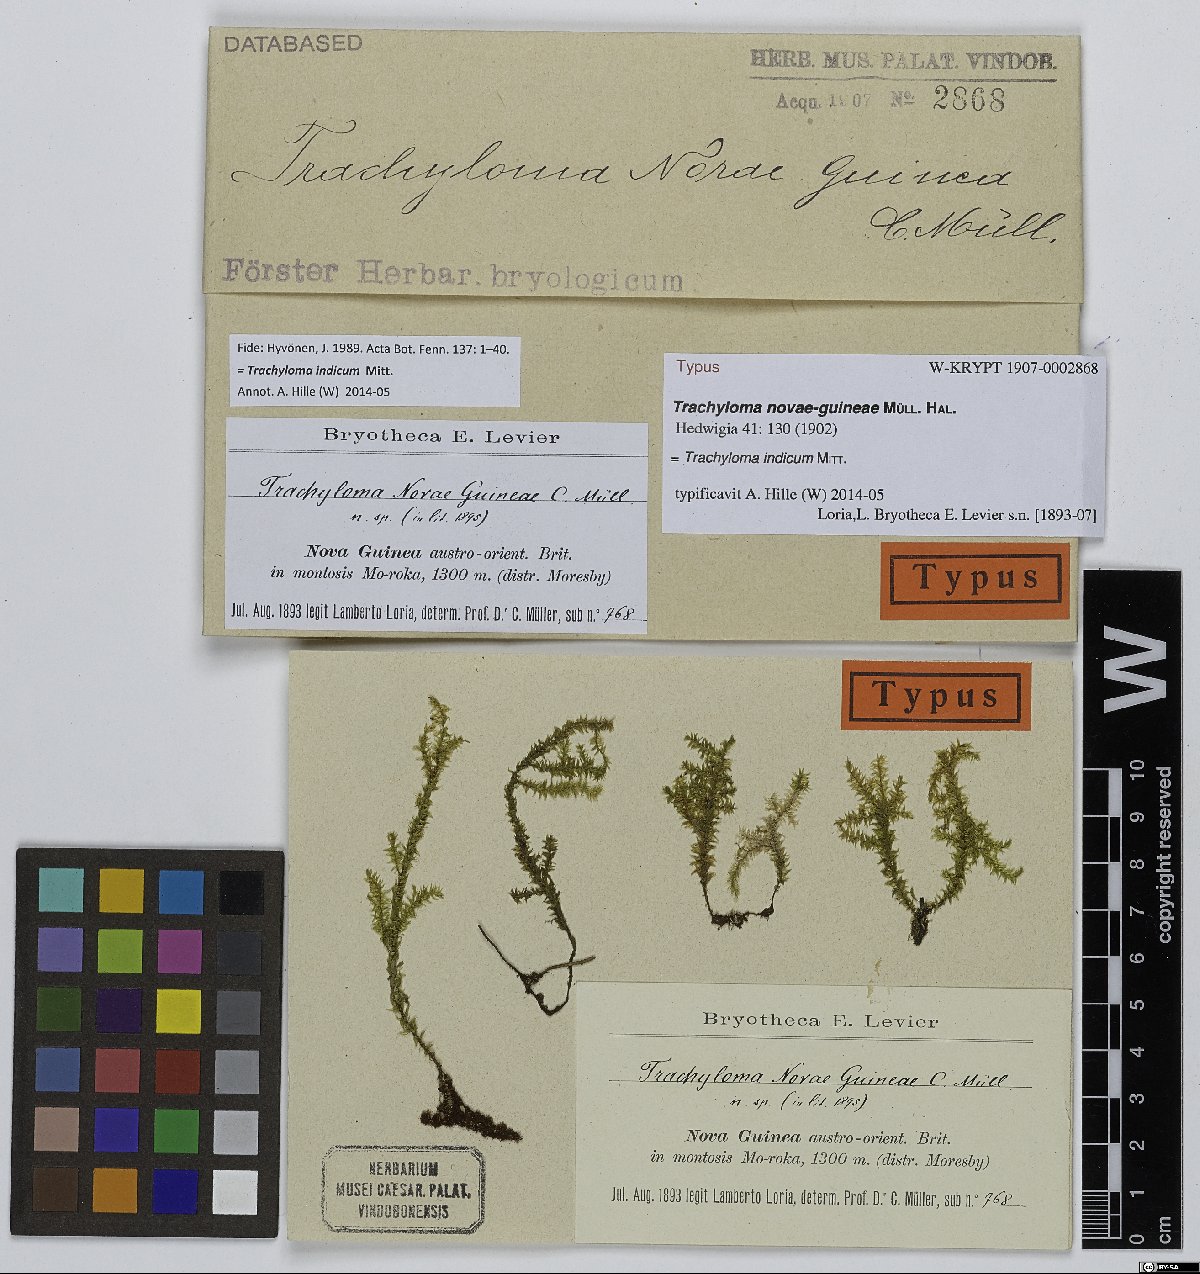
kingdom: Plantae
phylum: Bryophyta
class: Bryopsida
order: Hypnales
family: Trachylomataceae
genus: Trachyloma
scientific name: Trachyloma indicum
